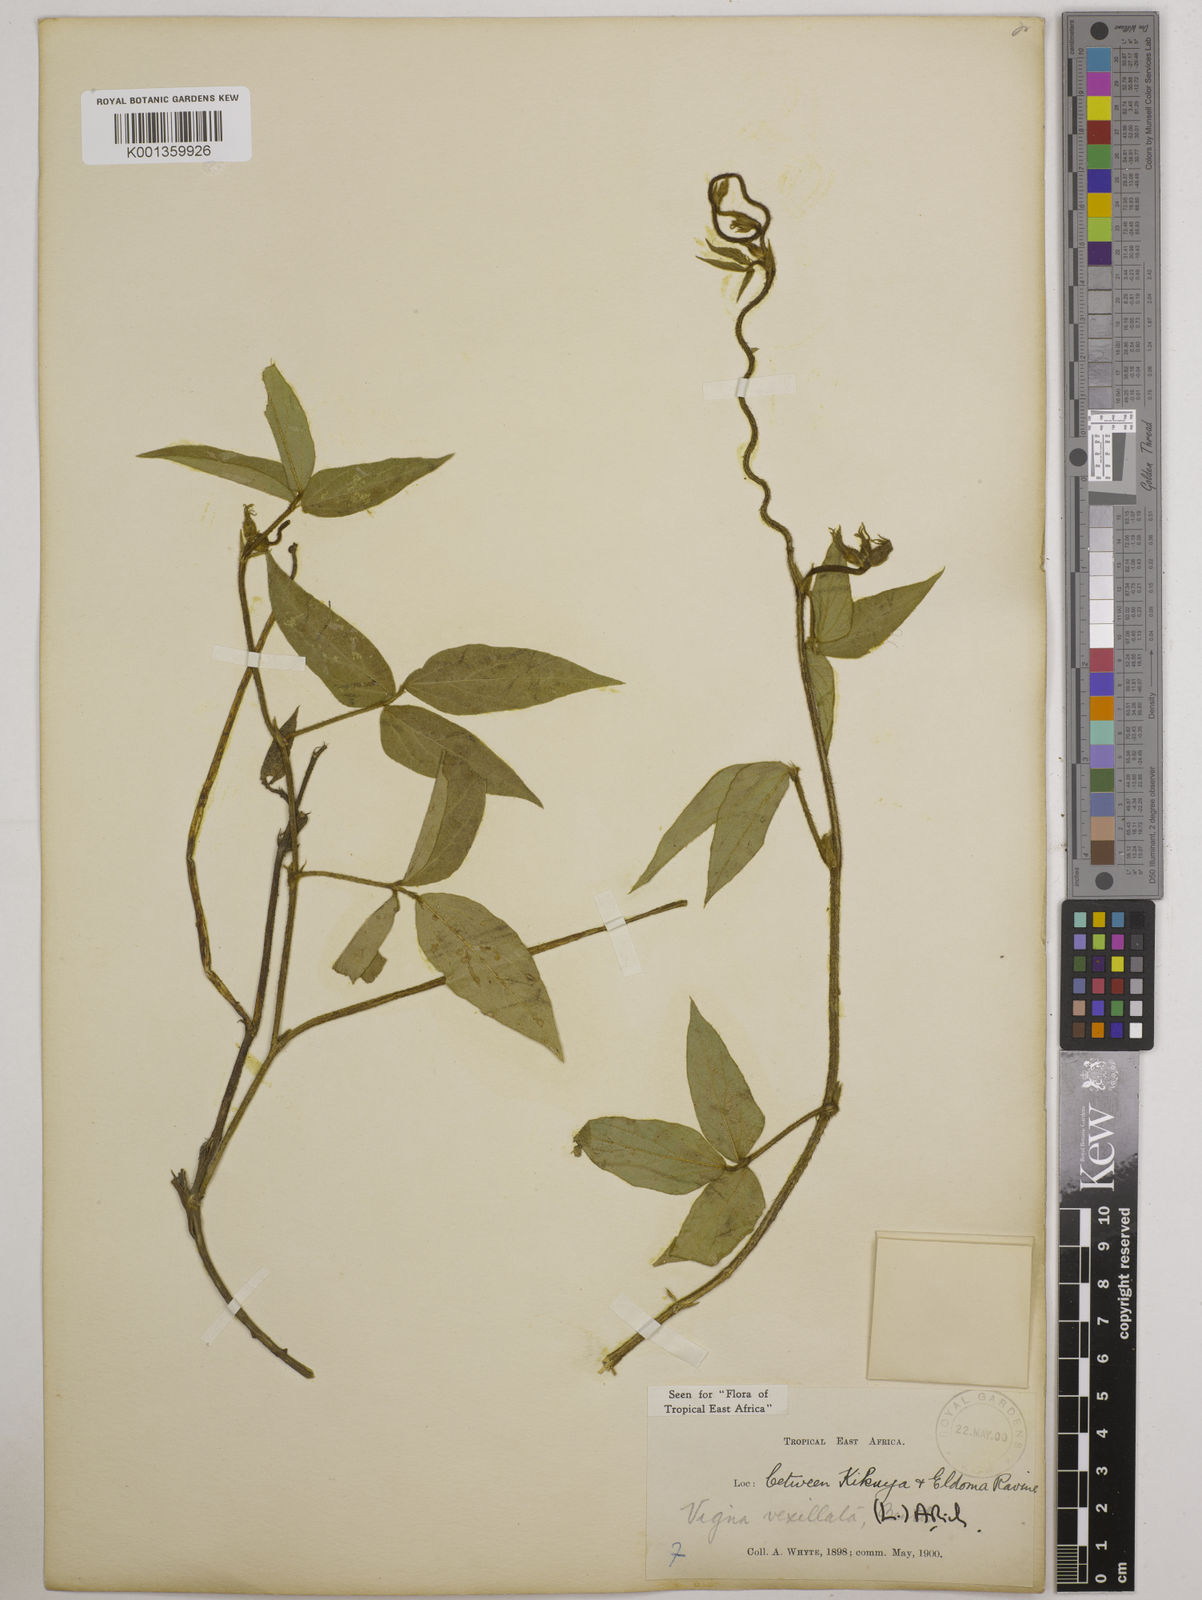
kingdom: Plantae
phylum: Tracheophyta
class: Magnoliopsida
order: Fabales
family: Fabaceae
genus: Vigna
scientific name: Vigna vexillata
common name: Zombi pea
